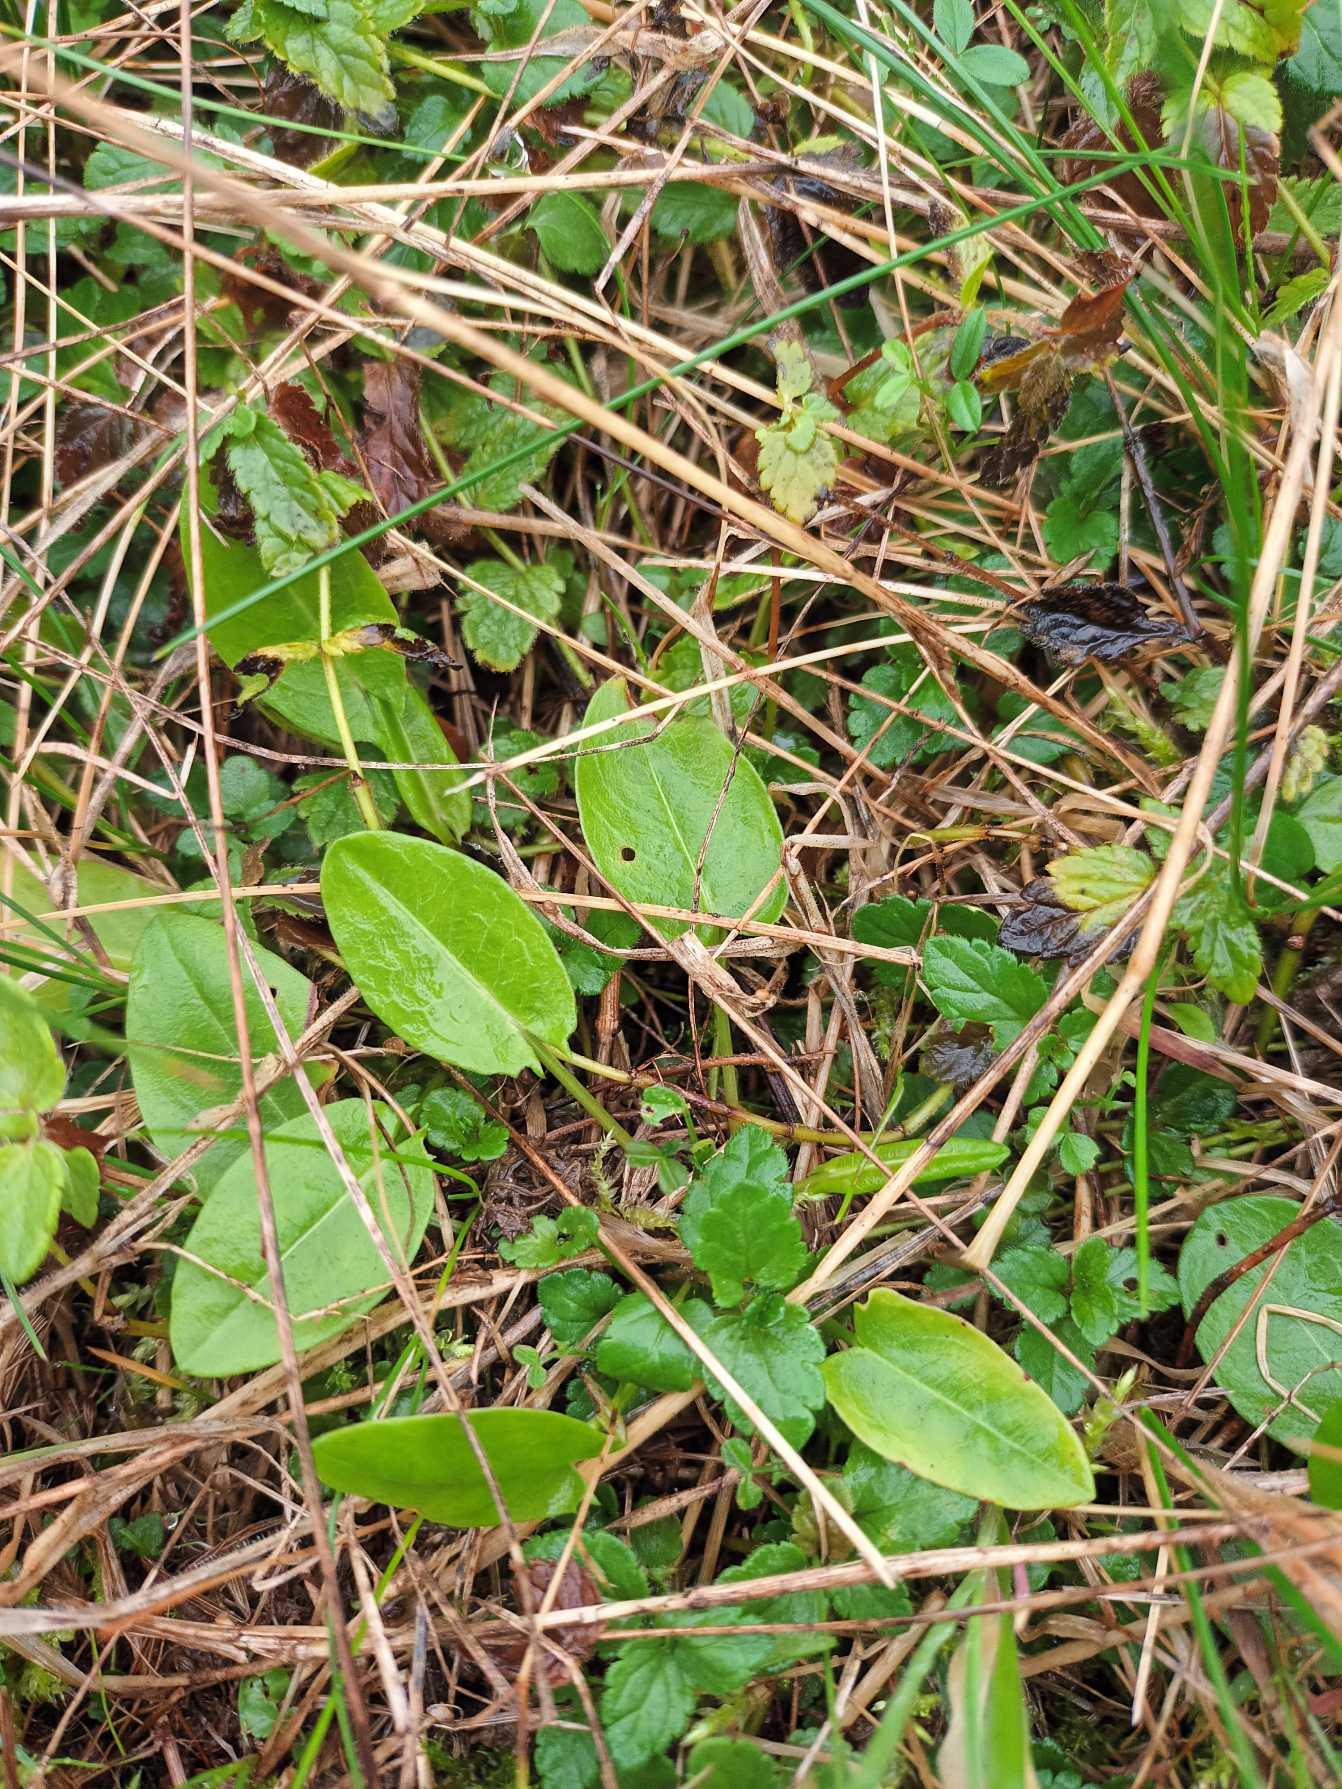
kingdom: Plantae
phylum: Tracheophyta
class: Magnoliopsida
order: Caryophyllales
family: Polygonaceae
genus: Rumex
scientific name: Rumex acetosa
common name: Almindelig syre
